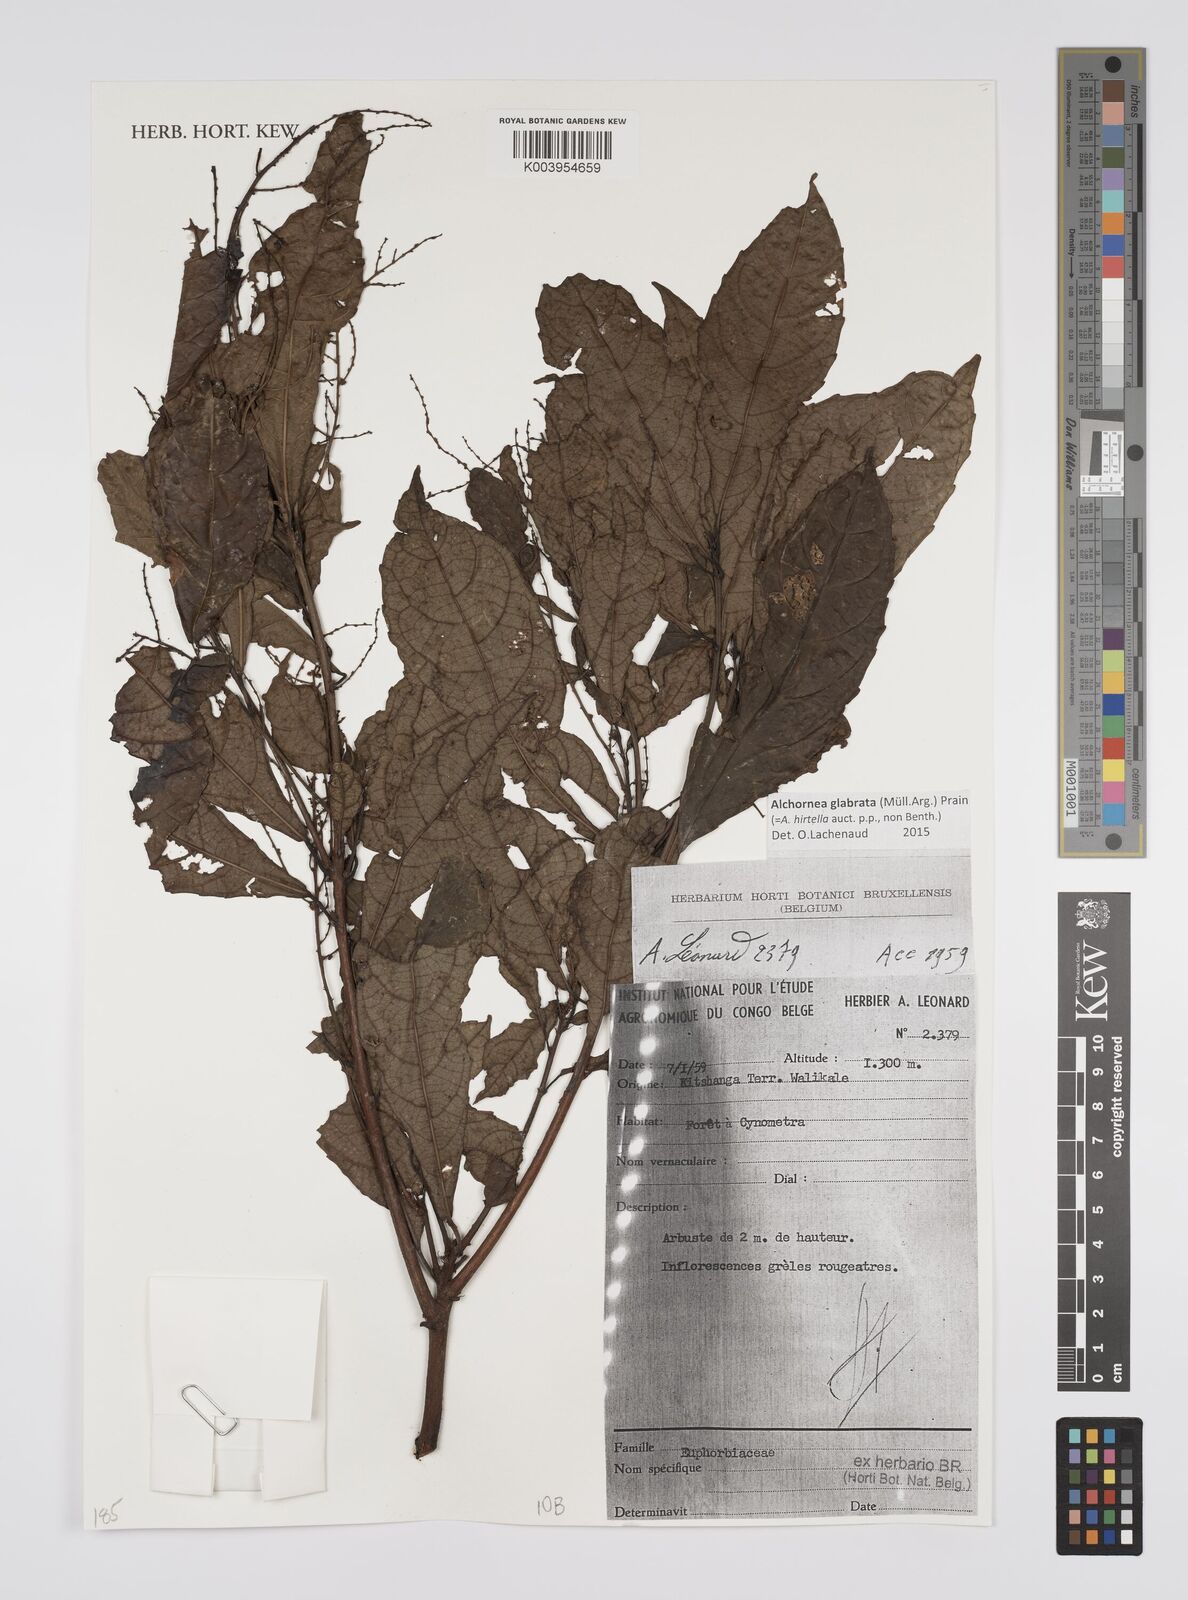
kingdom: Plantae
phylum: Tracheophyta
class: Magnoliopsida
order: Malpighiales
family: Euphorbiaceae
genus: Alchornea
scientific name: Alchornea hirtella
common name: Forest bead-string
